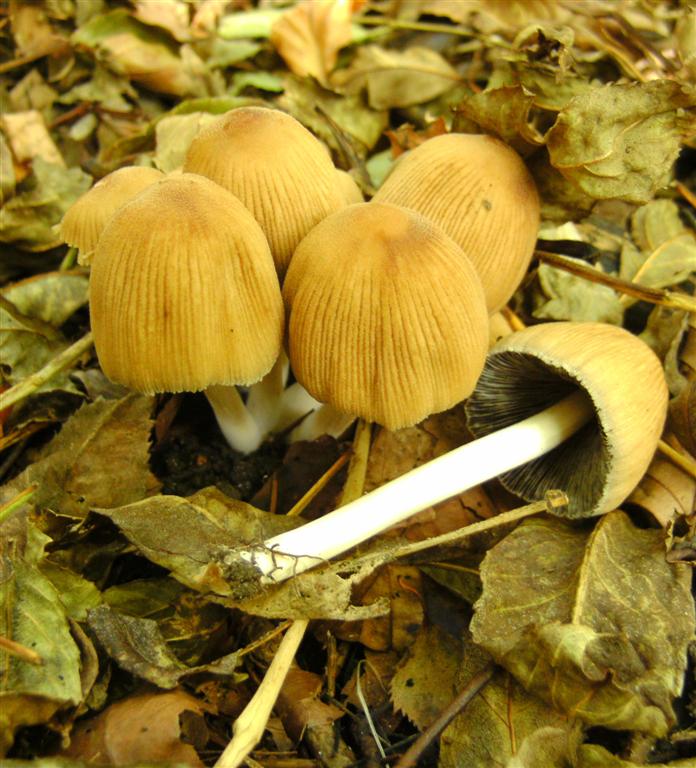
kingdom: Fungi
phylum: Basidiomycota
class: Agaricomycetes
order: Agaricales
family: Psathyrellaceae
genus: Coprinellus
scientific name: Coprinellus micaceus
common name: glimmer-blækhat
